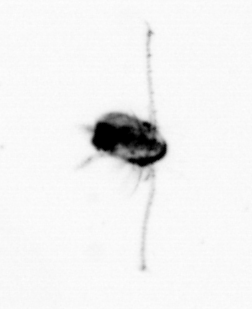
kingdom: Animalia
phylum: Arthropoda
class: Copepoda
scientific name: Copepoda
